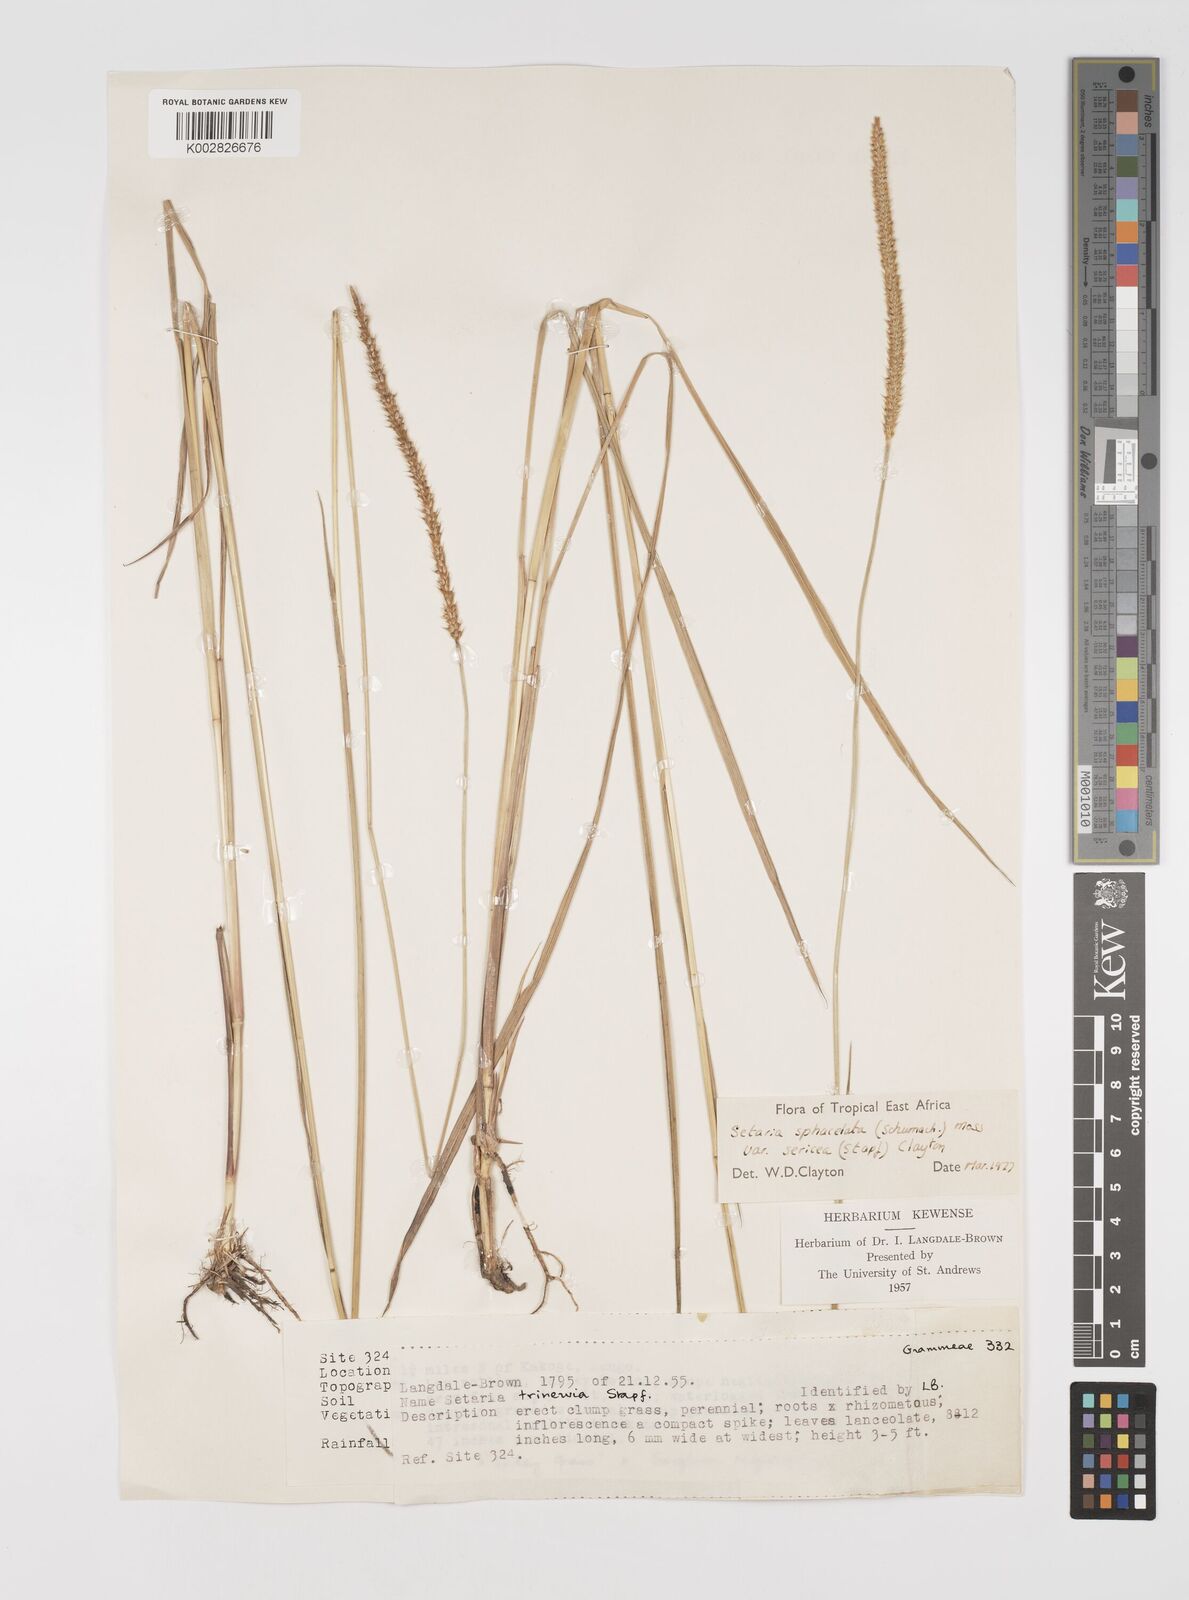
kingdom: Plantae
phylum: Tracheophyta
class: Liliopsida
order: Poales
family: Poaceae
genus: Setaria
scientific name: Setaria sphacelata
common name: African bristlegrass
